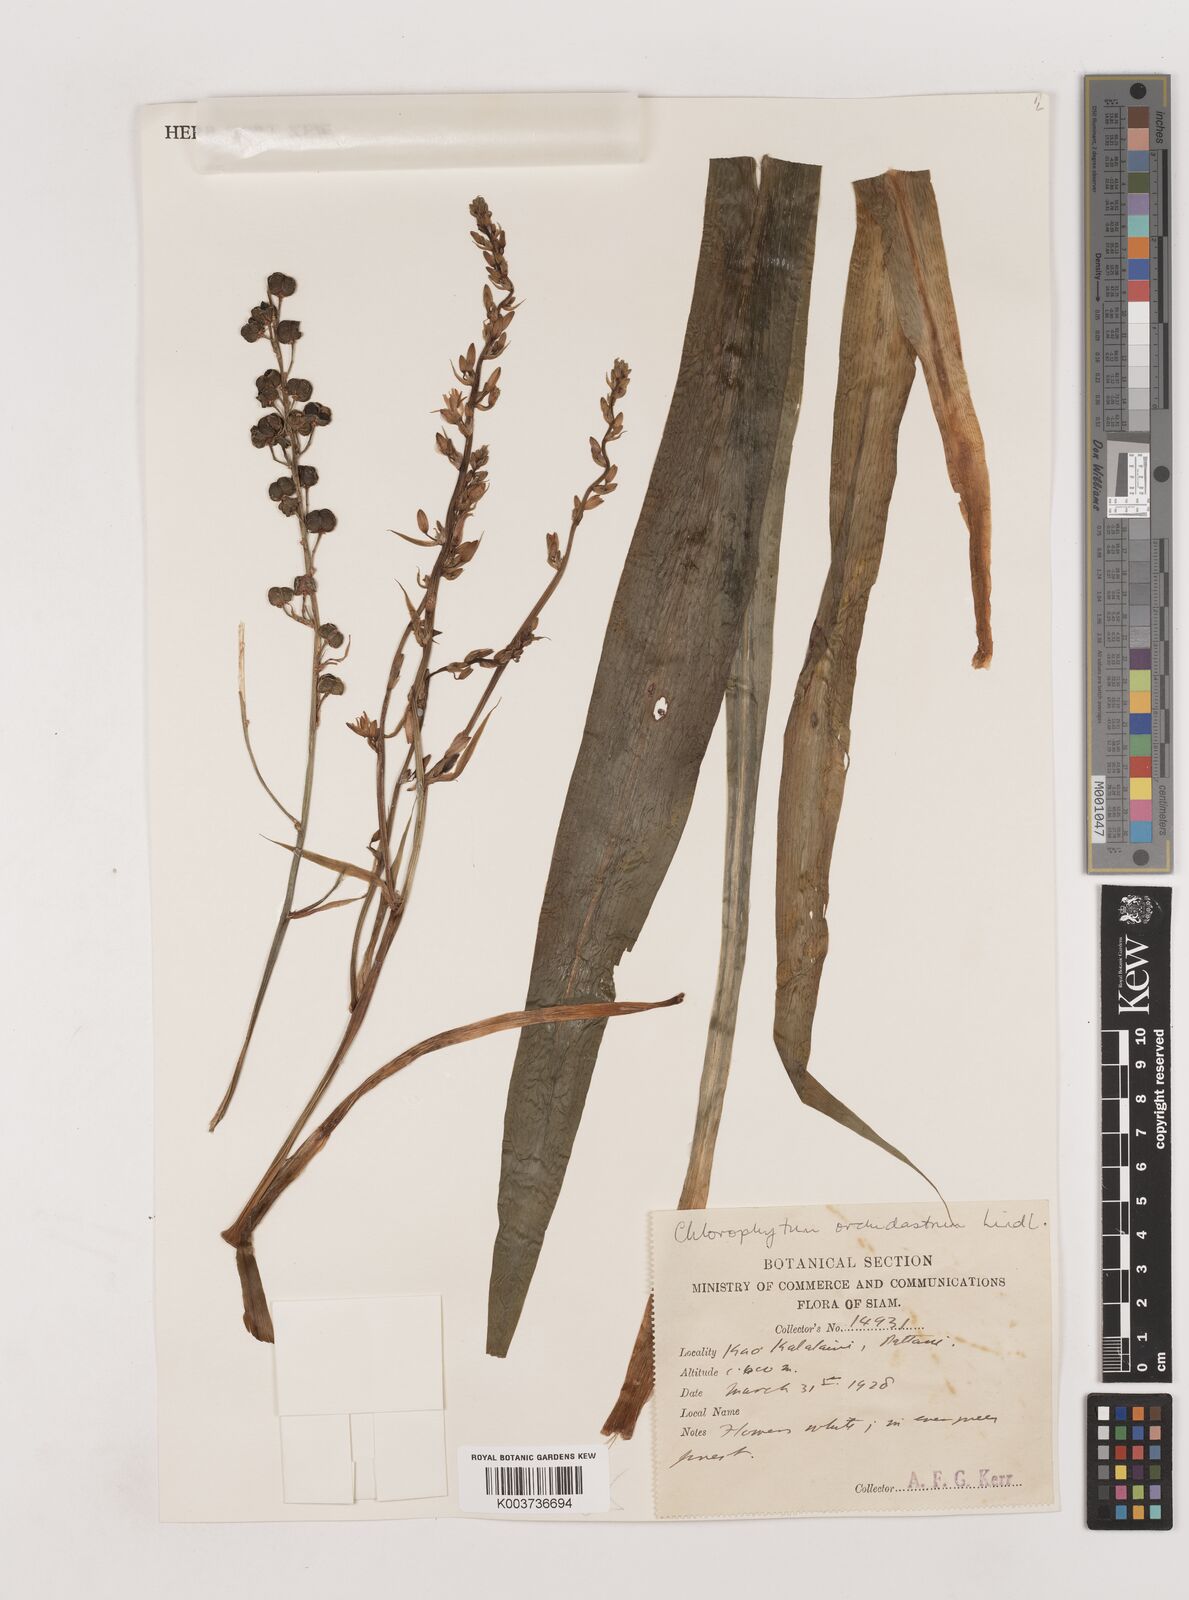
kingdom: Plantae
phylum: Tracheophyta
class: Liliopsida
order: Asparagales
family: Asparagaceae
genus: Chlorophytum
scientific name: Chlorophytum
